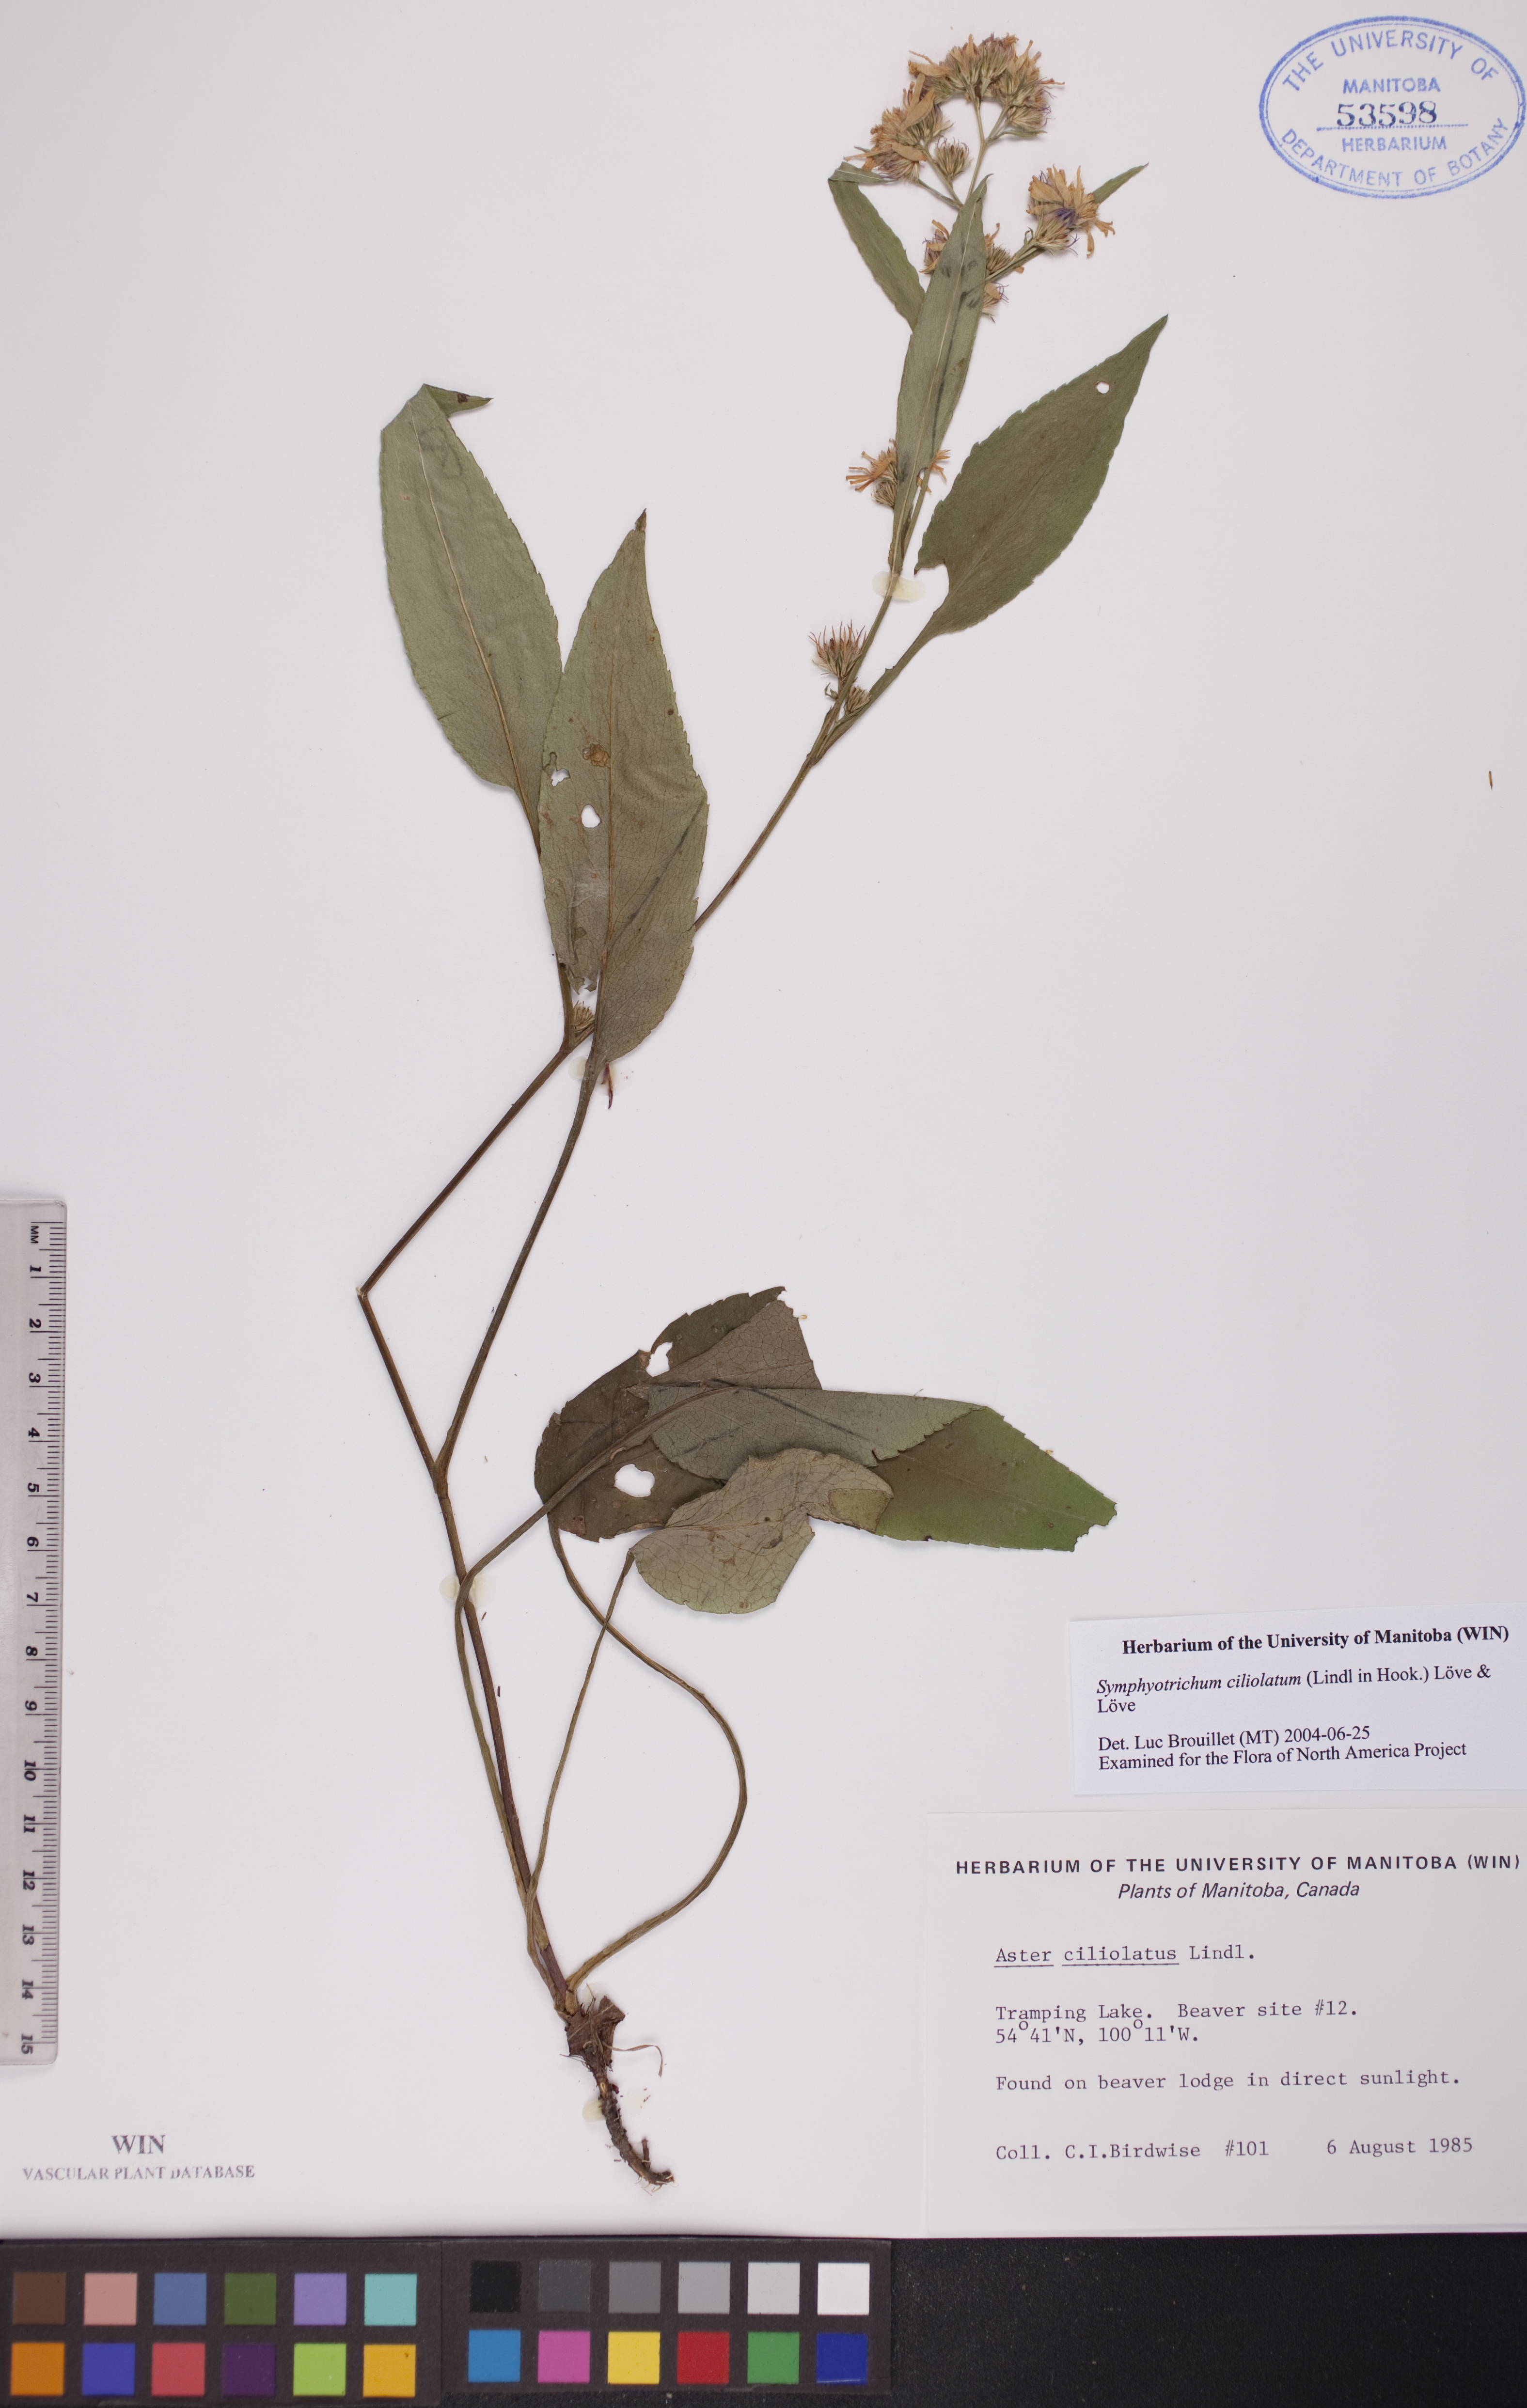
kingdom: Plantae
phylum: Tracheophyta
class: Magnoliopsida
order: Asterales
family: Asteraceae
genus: Symphyotrichum
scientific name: Symphyotrichum ciliolatum
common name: Fringed blue aster
